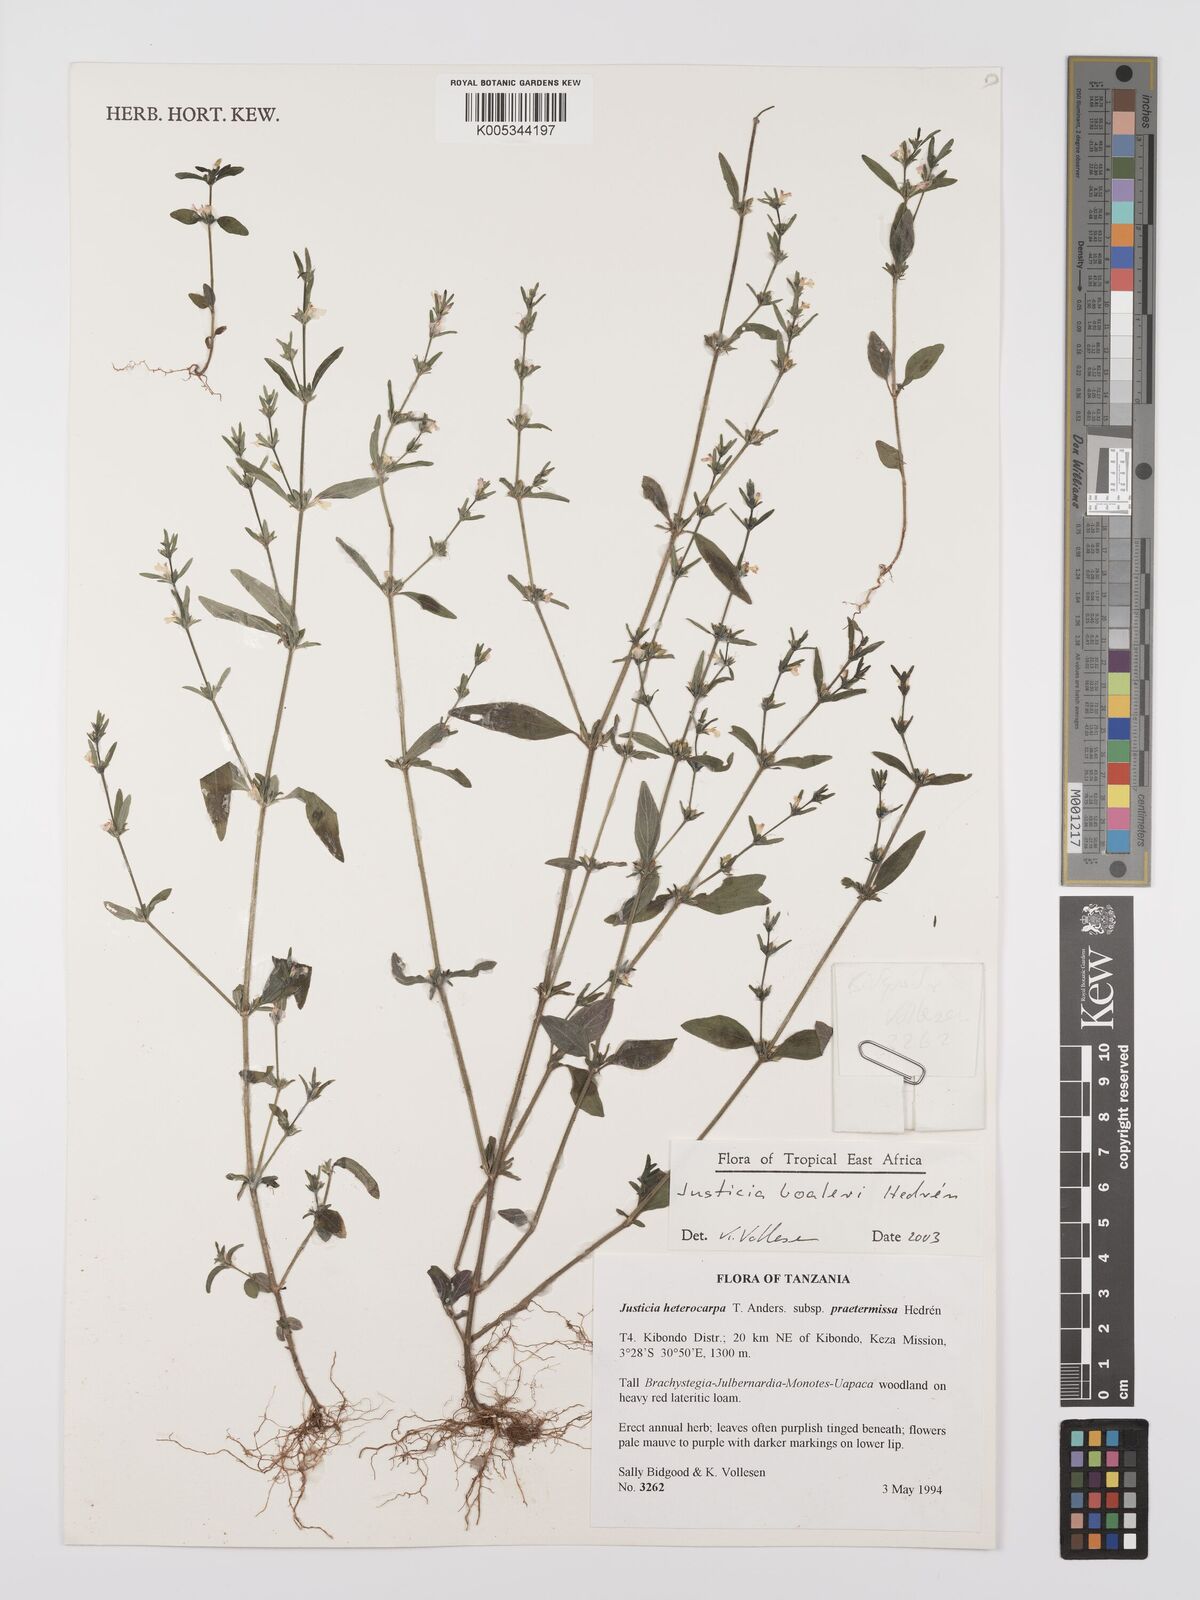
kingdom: Plantae
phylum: Tracheophyta
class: Magnoliopsida
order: Lamiales
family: Acanthaceae
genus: Justicia
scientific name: Justicia boaleri
